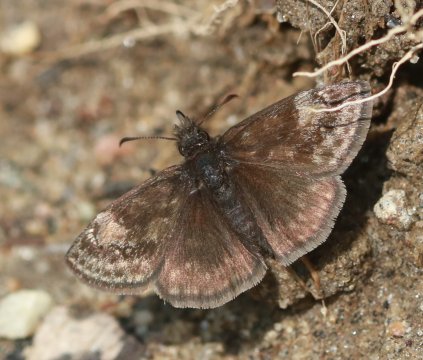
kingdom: Animalia
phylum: Arthropoda
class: Insecta
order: Lepidoptera
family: Hesperiidae
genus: Gesta
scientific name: Gesta
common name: Columbine Duskywing
